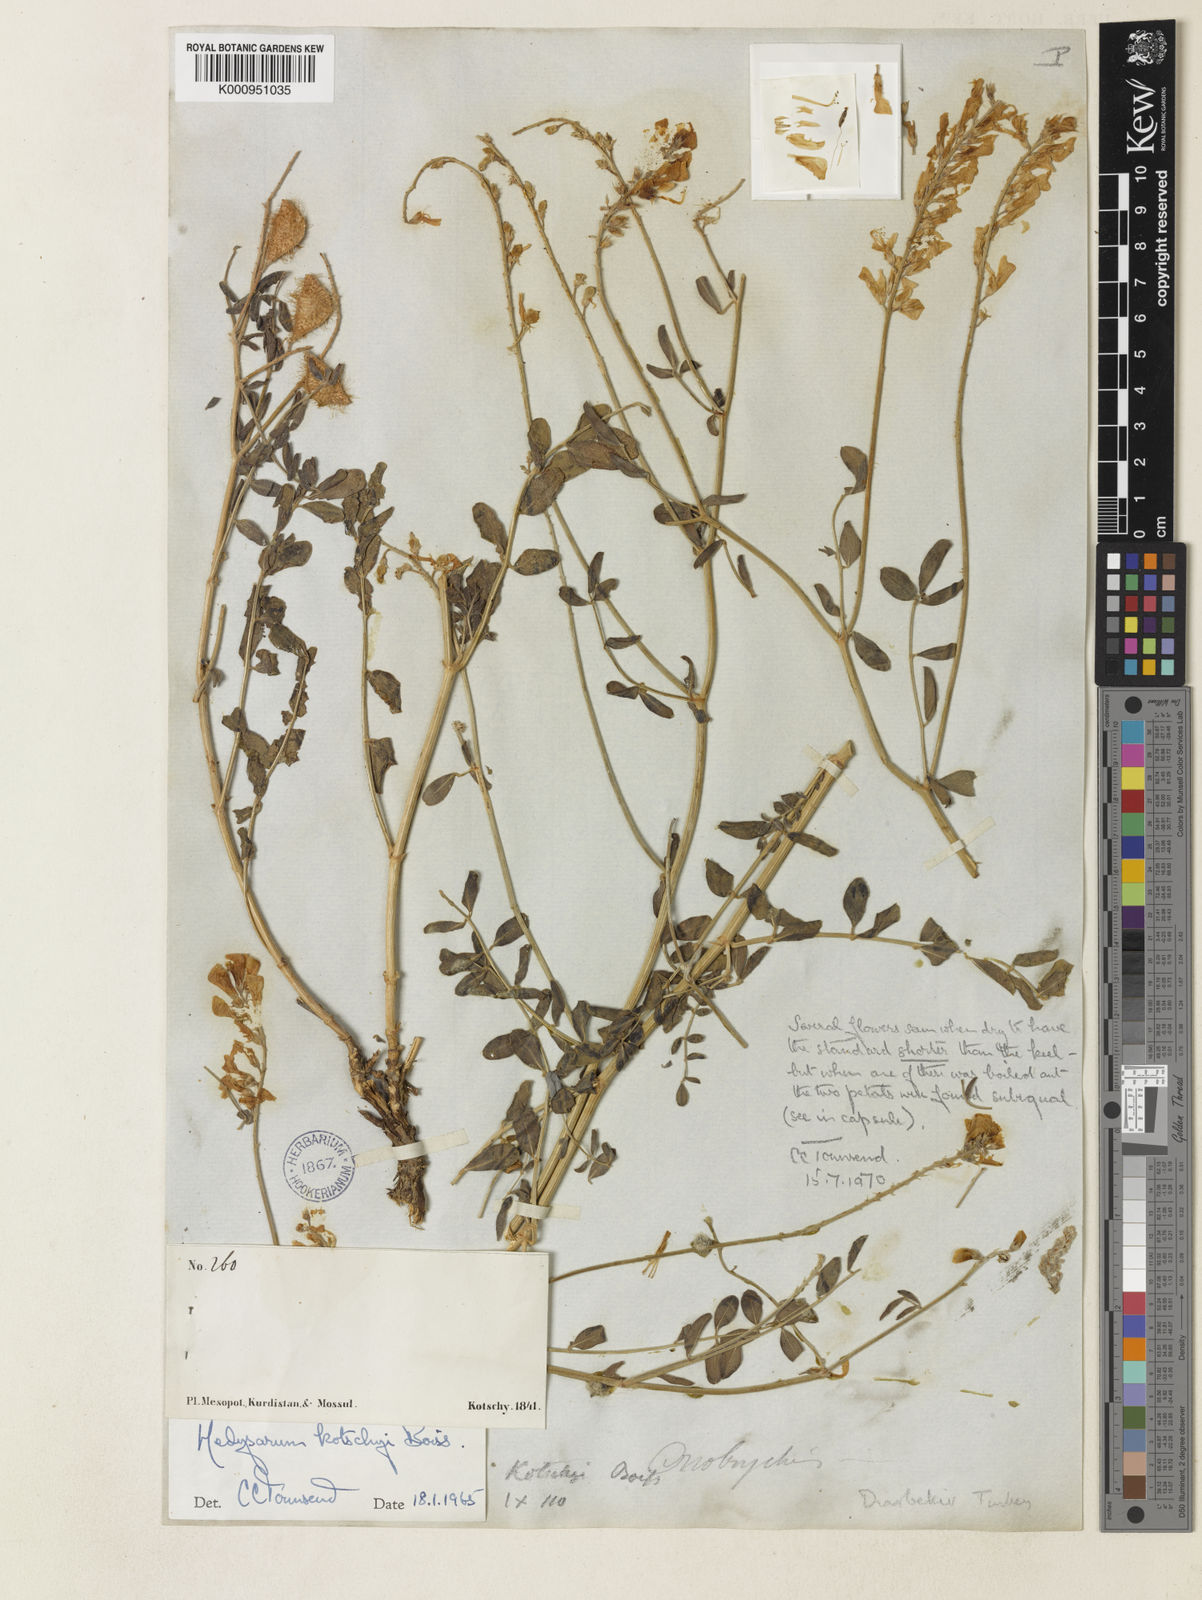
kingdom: Plantae
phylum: Tracheophyta
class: Magnoliopsida
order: Fabales
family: Fabaceae
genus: Hedysarum
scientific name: Hedysarum kotschyi
